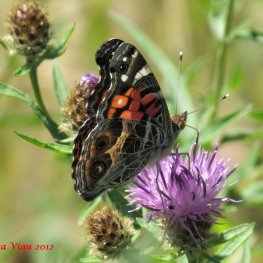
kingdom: Animalia
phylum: Arthropoda
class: Insecta
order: Lepidoptera
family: Nymphalidae
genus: Vanessa
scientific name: Vanessa virginiensis
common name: American Lady
